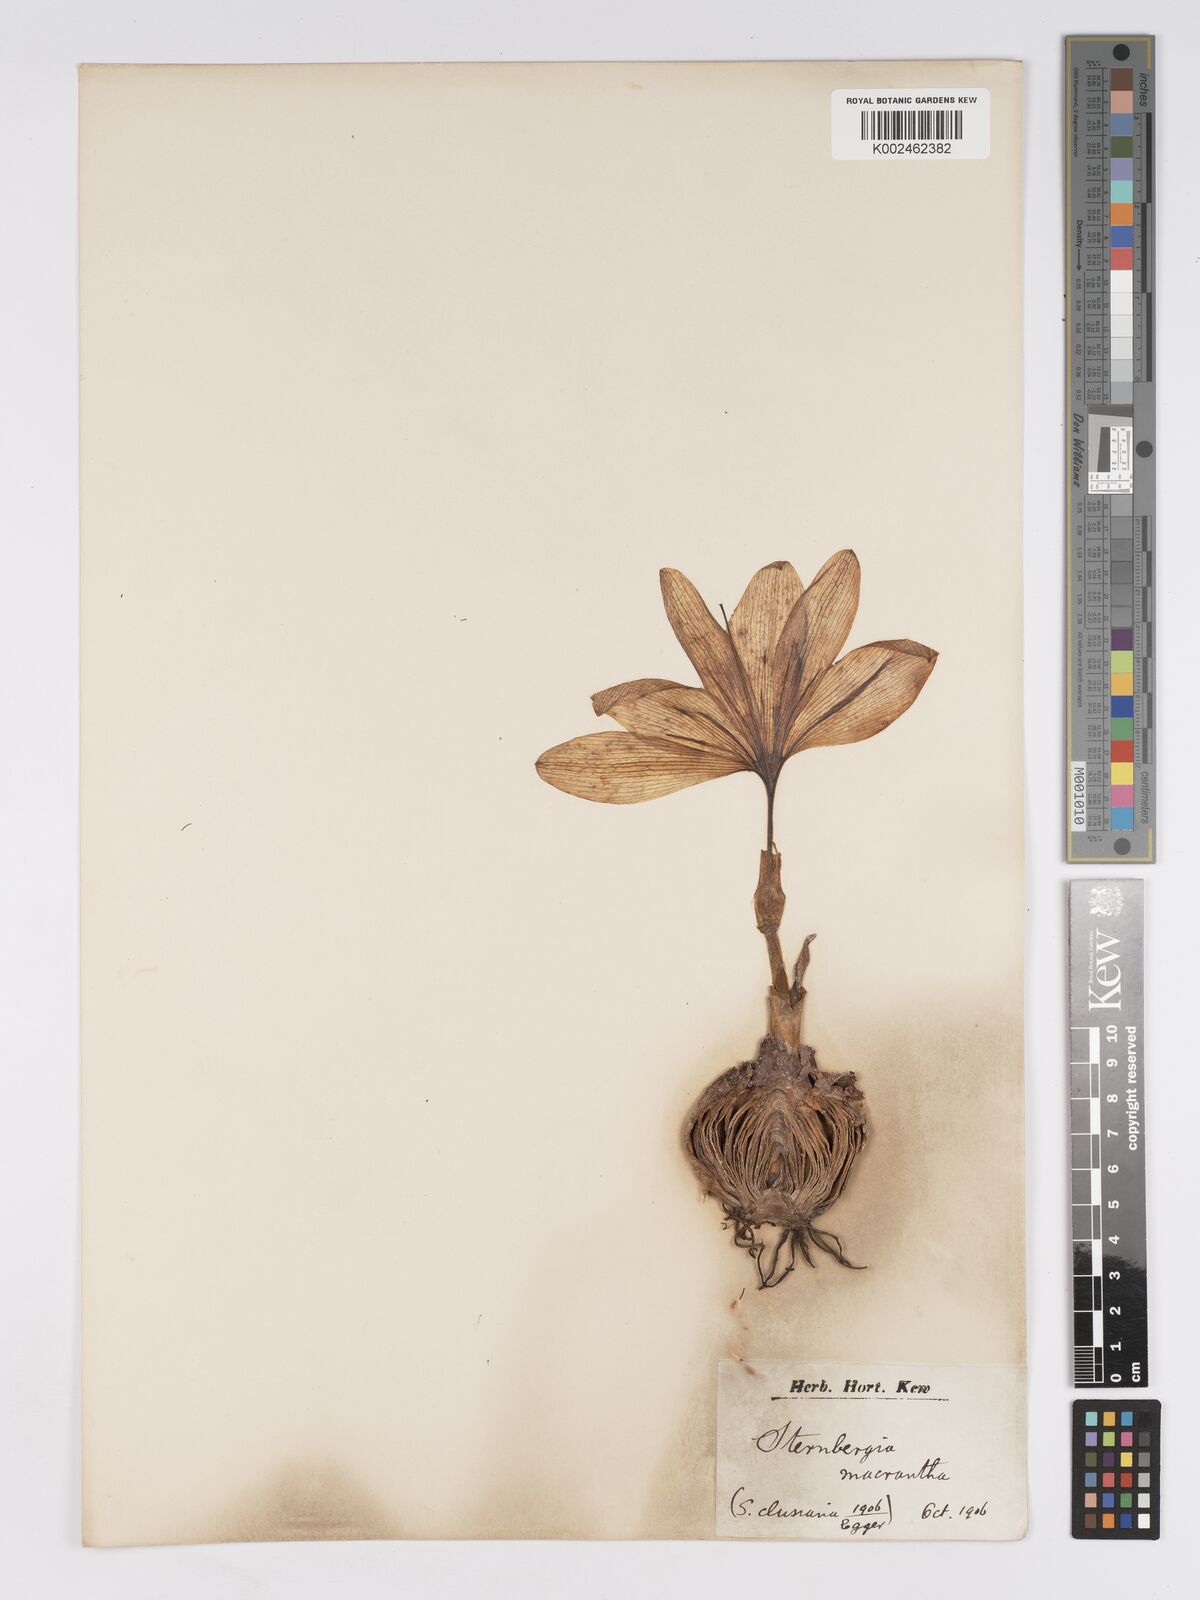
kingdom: Plantae
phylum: Tracheophyta
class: Liliopsida
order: Asparagales
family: Amaryllidaceae
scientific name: Amaryllidaceae
